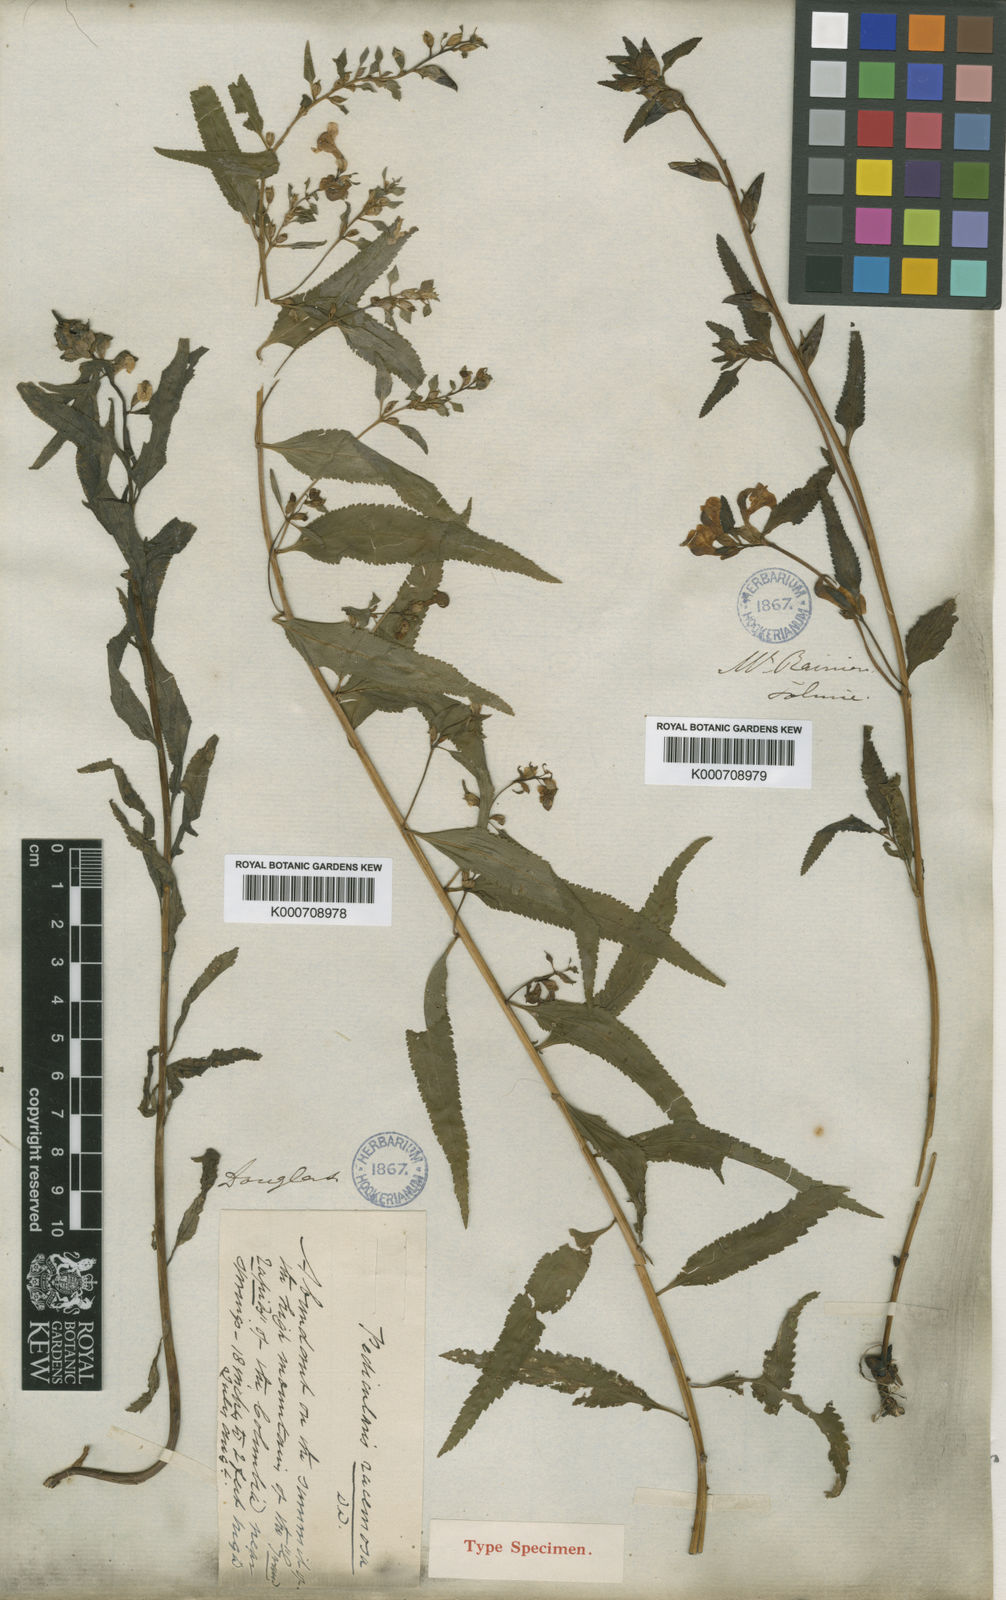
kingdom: Plantae
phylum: Tracheophyta
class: Magnoliopsida
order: Lamiales
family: Orobanchaceae
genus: Pedicularis
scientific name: Pedicularis racemosa
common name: Leafy lousewort
